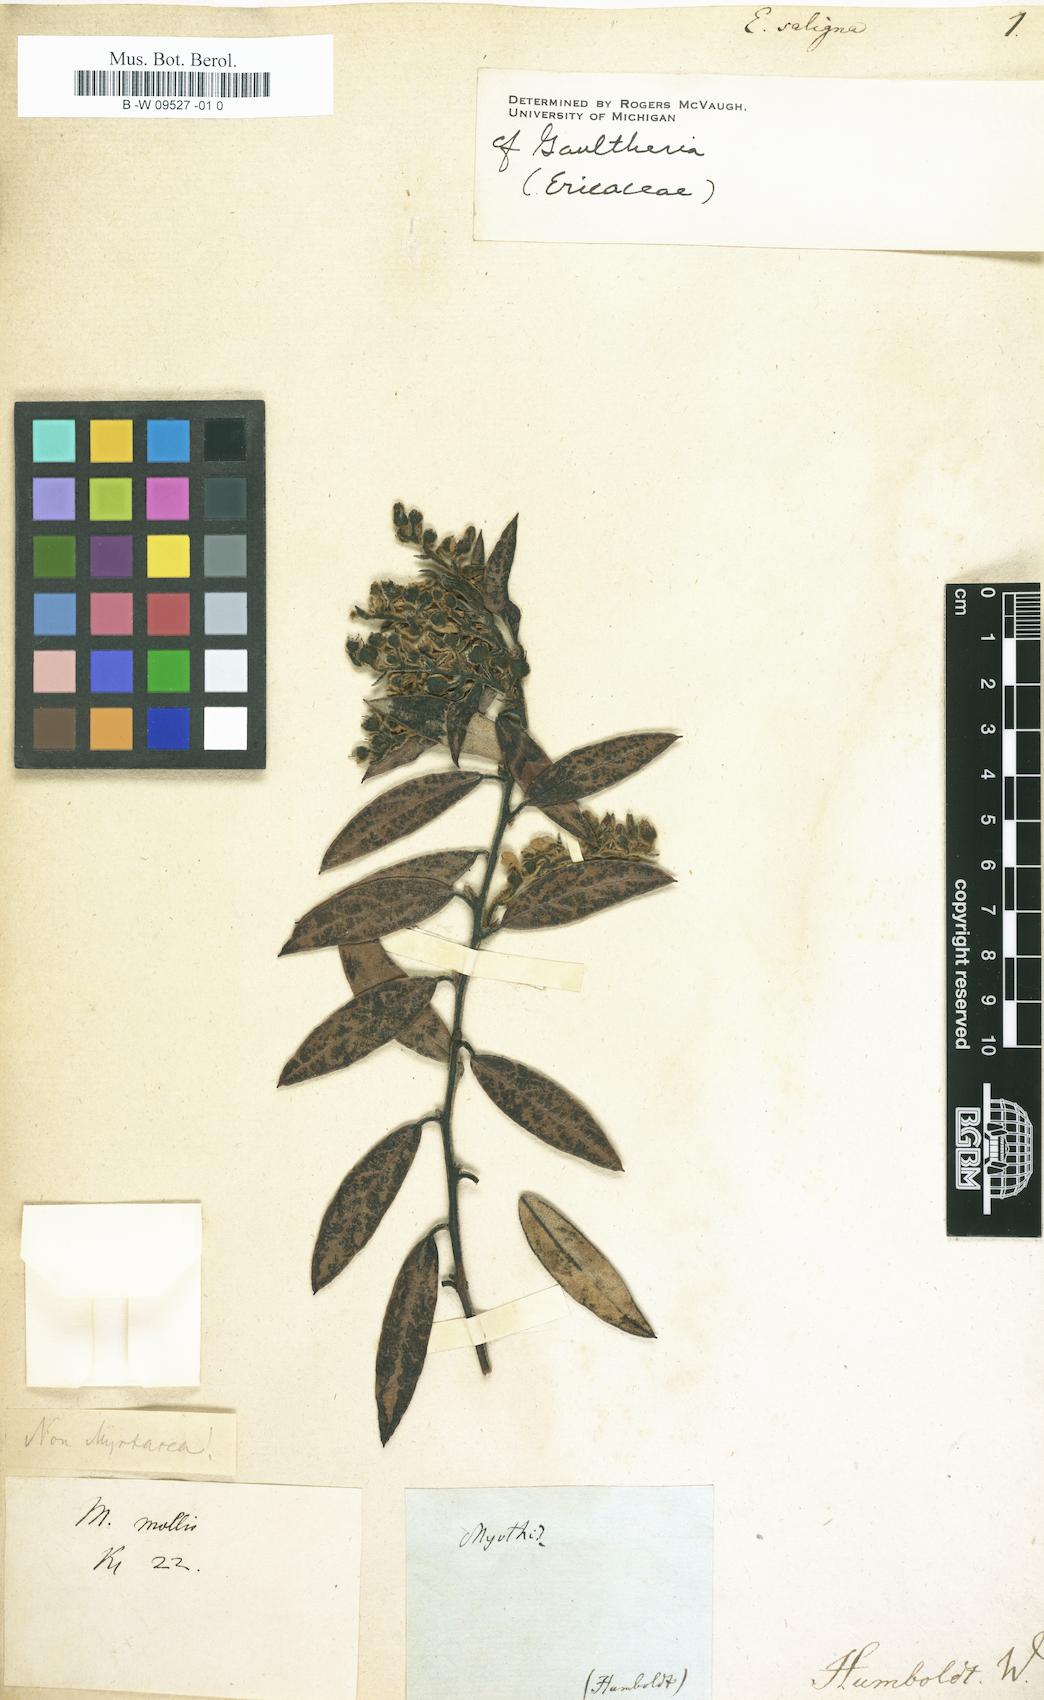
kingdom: Plantae
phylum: Tracheophyta
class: Magnoliopsida
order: Myrtales
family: Myrtaceae
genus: Syzygium
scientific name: Syzygium salignum
